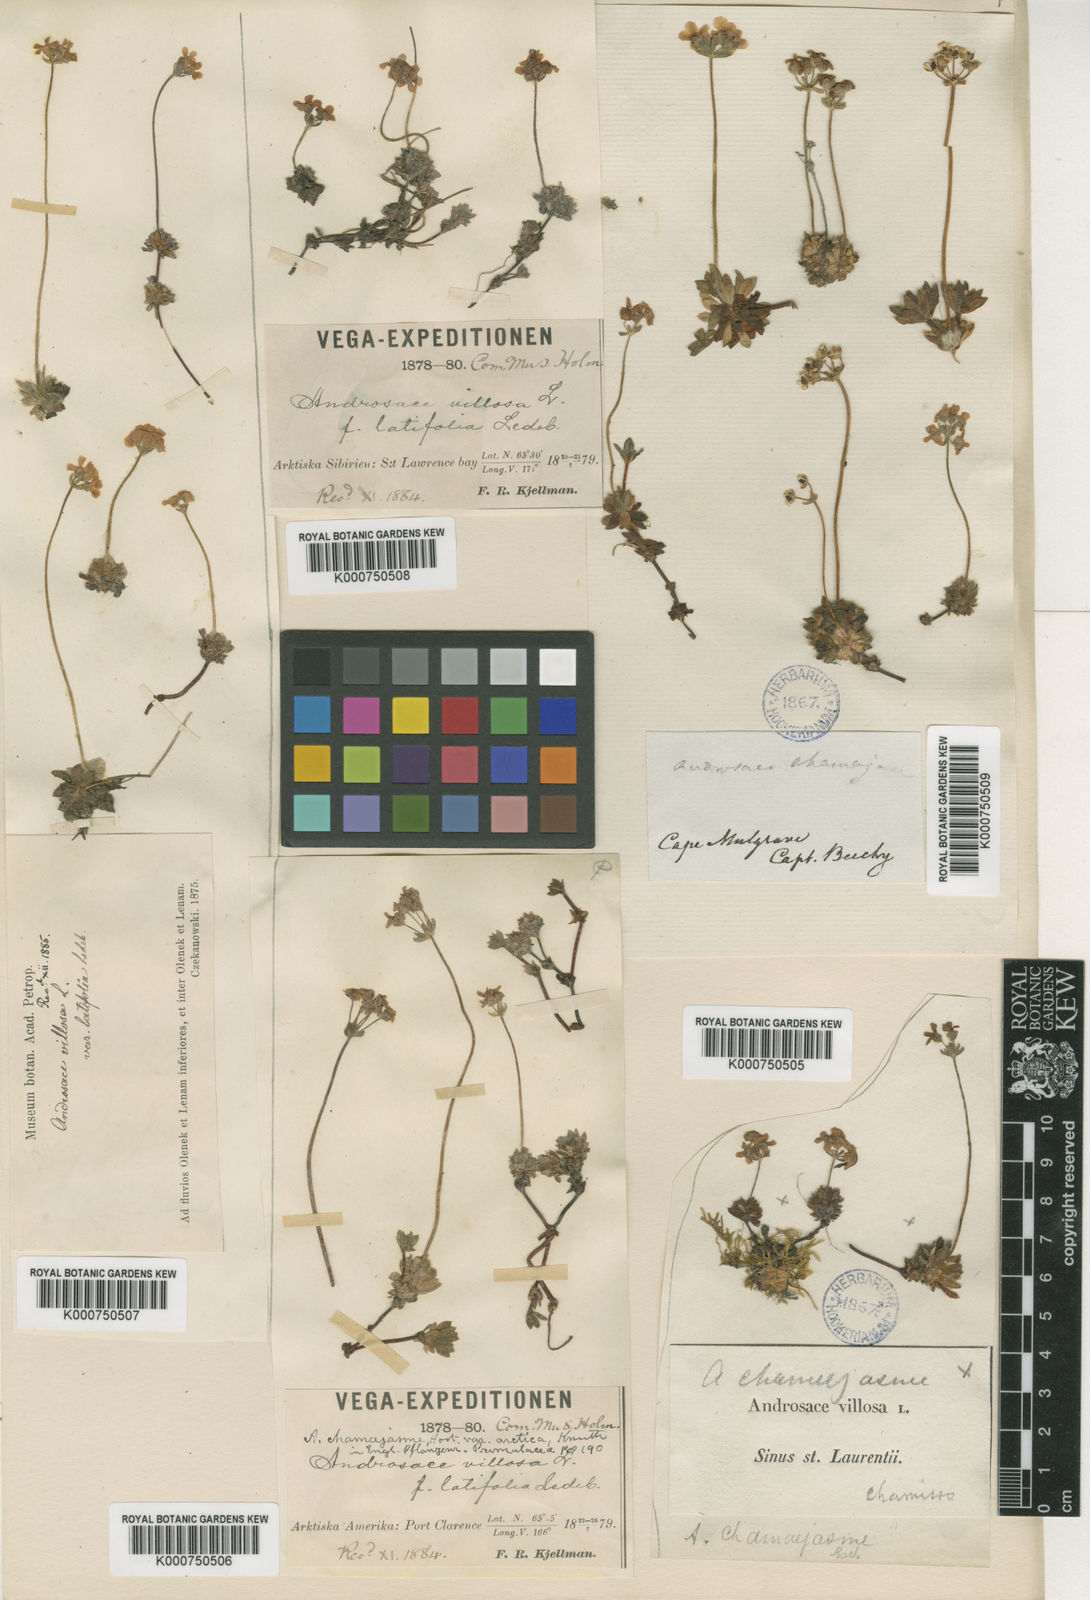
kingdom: Plantae
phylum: Tracheophyta
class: Magnoliopsida
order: Ericales
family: Primulaceae
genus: Androsace
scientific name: Androsace
